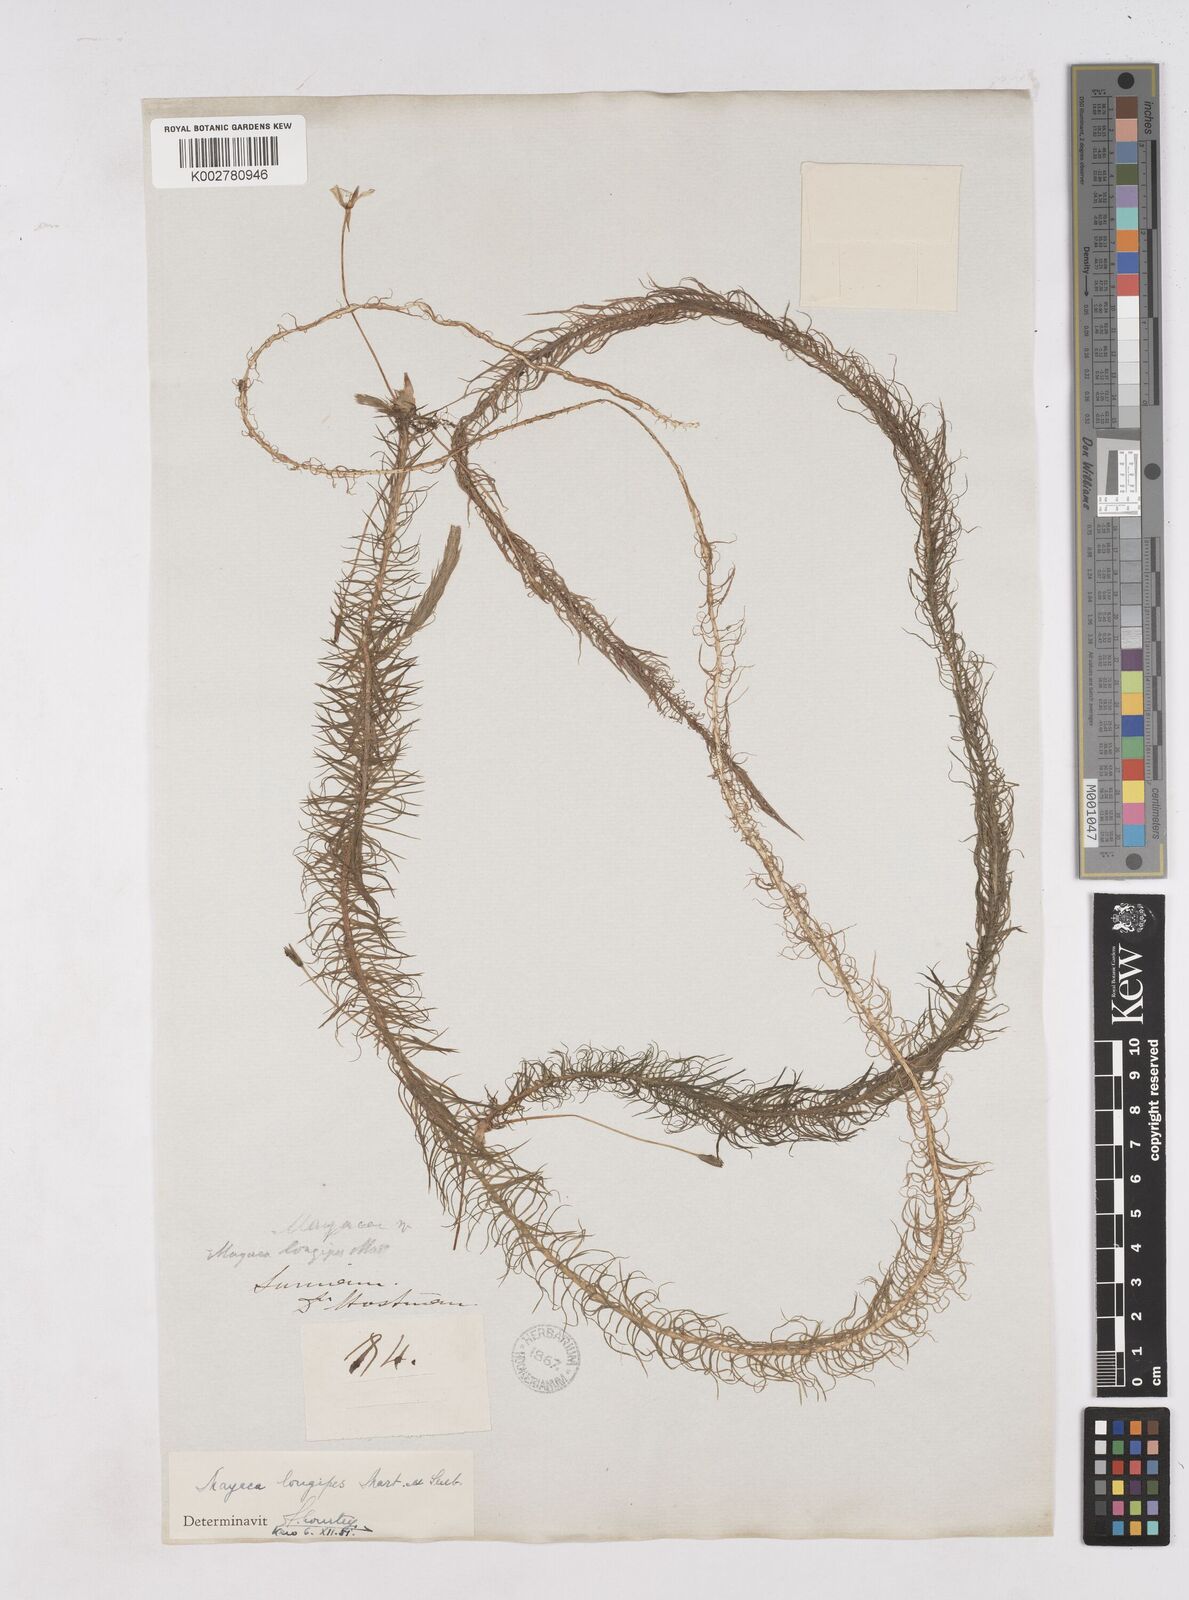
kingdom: Plantae
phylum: Tracheophyta
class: Liliopsida
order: Poales
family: Mayacaceae
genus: Mayaca
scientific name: Mayaca fluviatilis
